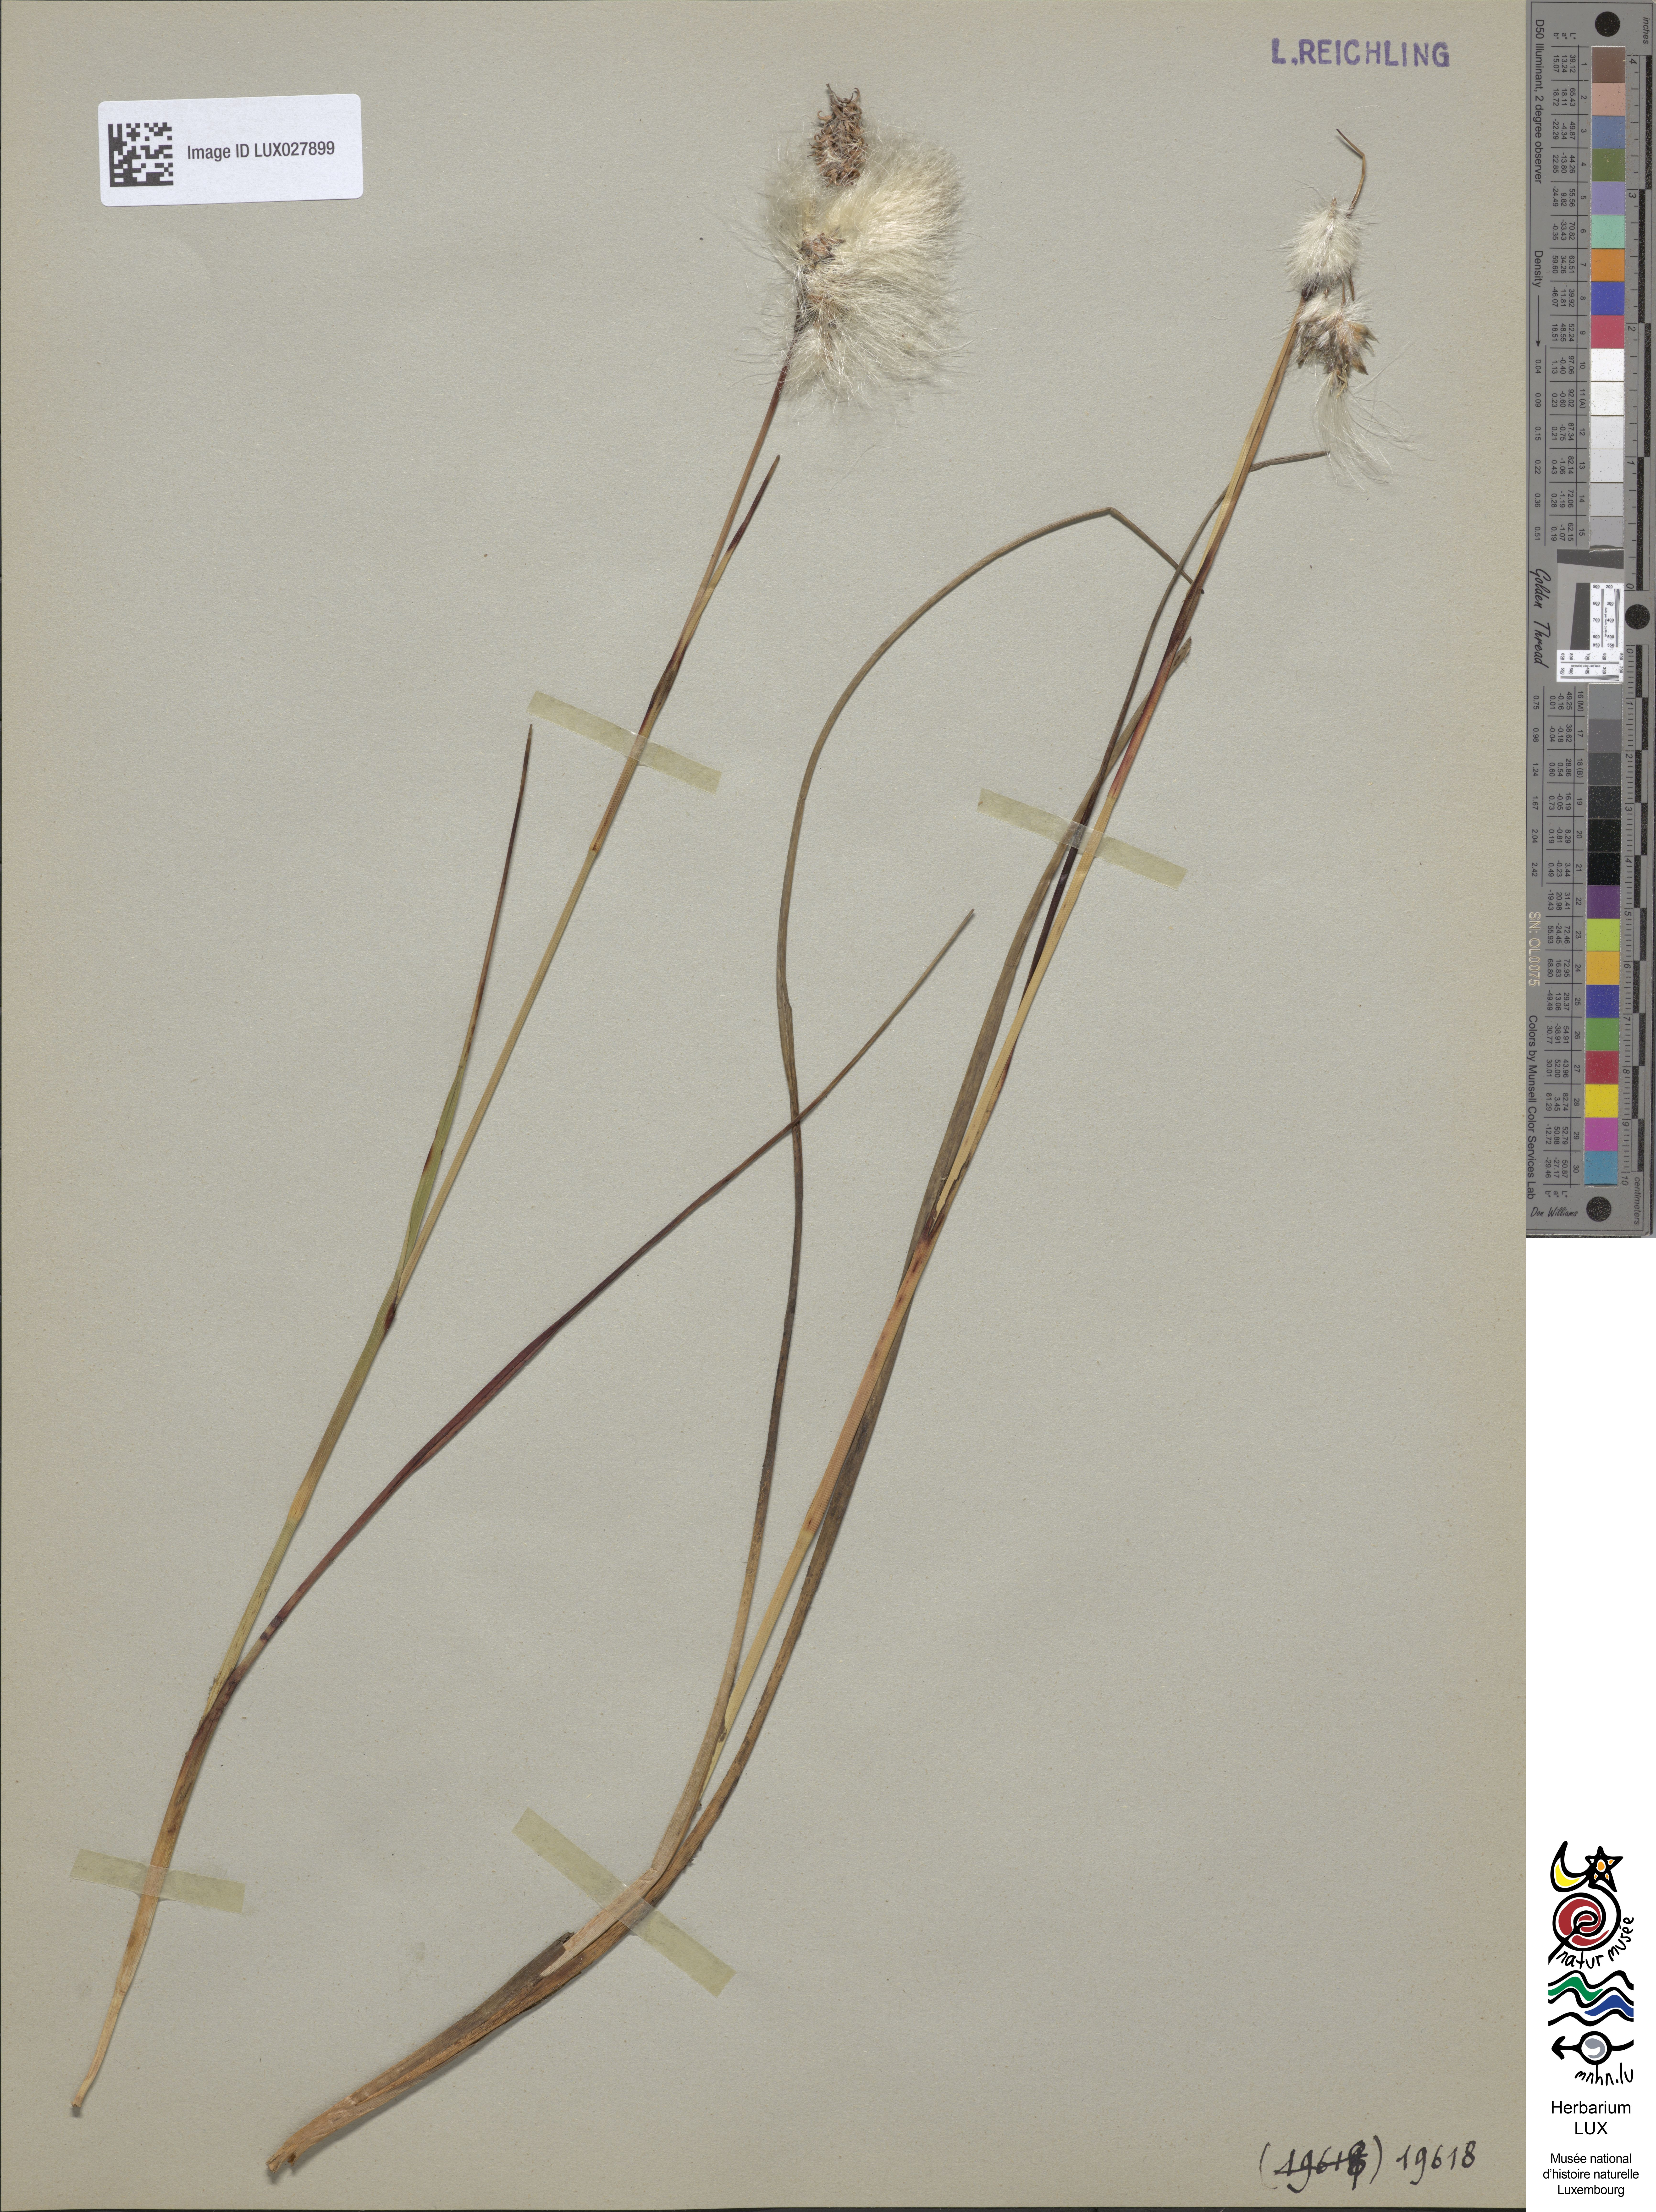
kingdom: Plantae
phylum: Tracheophyta
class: Liliopsida
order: Poales
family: Cyperaceae
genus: Eriophorum
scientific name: Eriophorum angustifolium
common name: Common cottongrass
